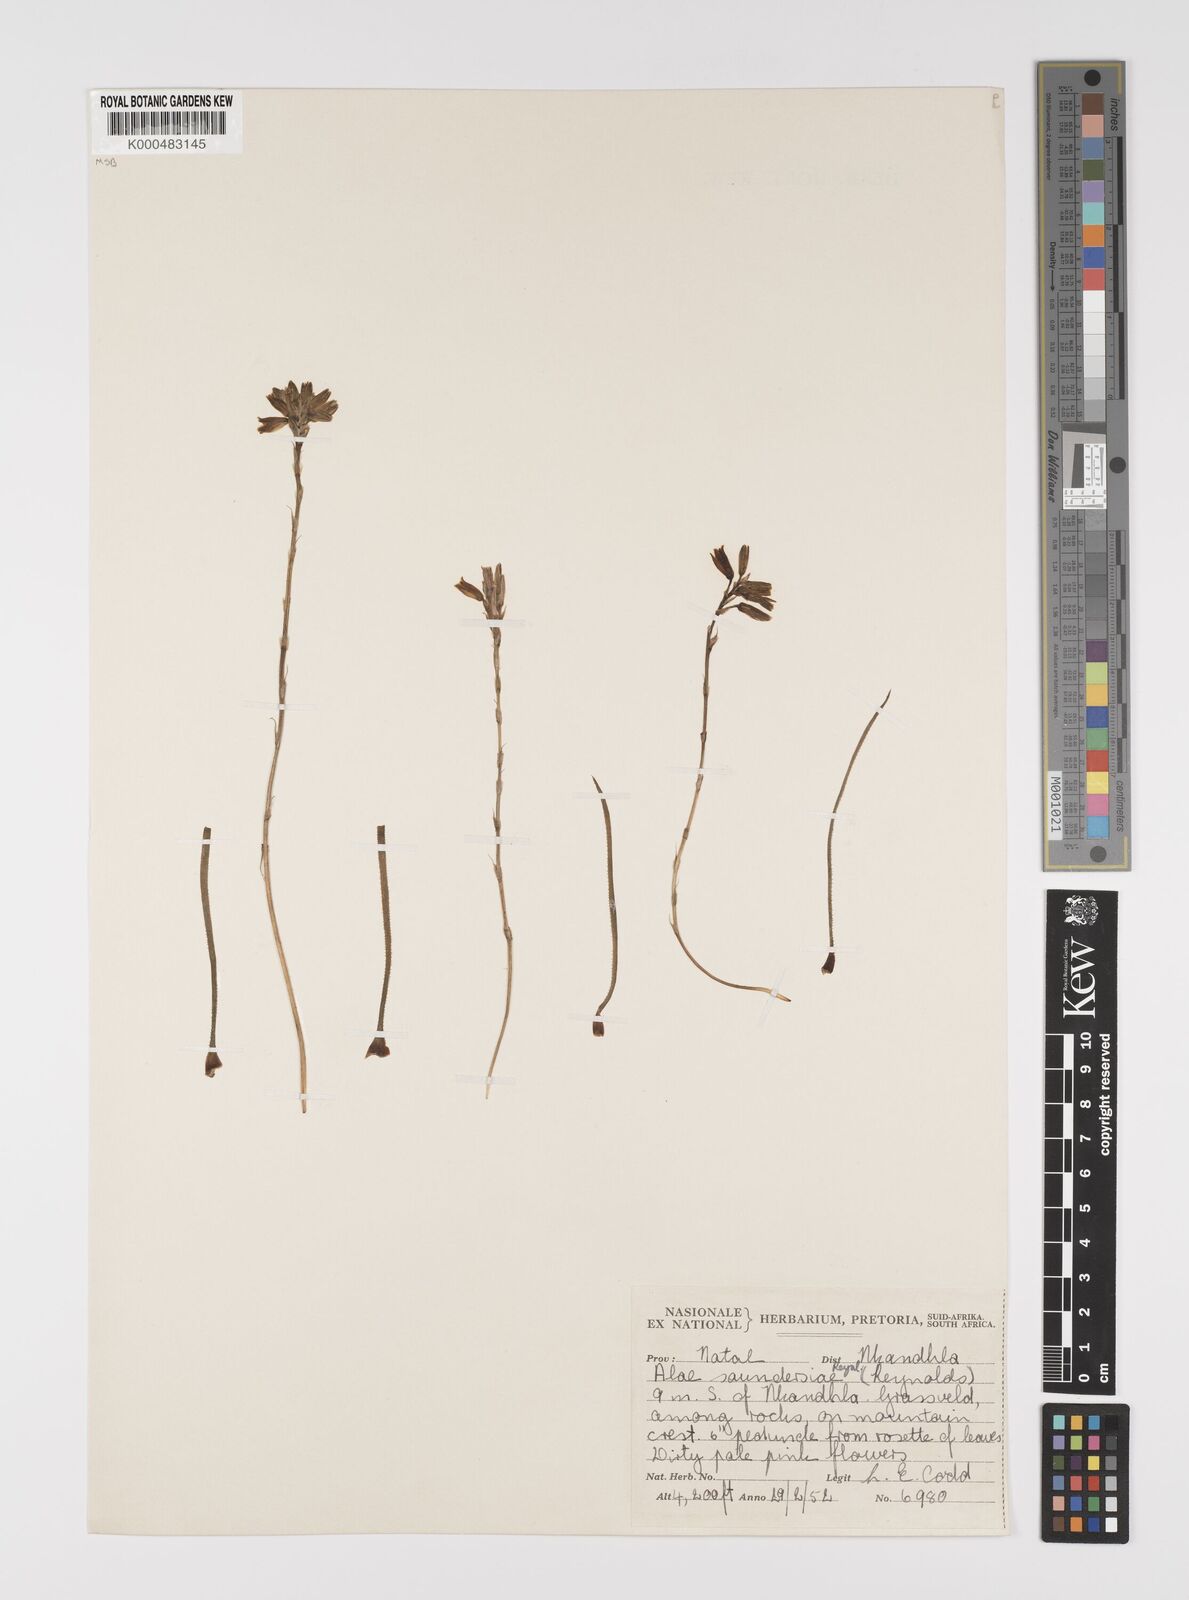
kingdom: Plantae
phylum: Tracheophyta
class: Liliopsida
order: Asparagales
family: Asphodelaceae
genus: Aloe
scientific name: Aloe saundersiae
